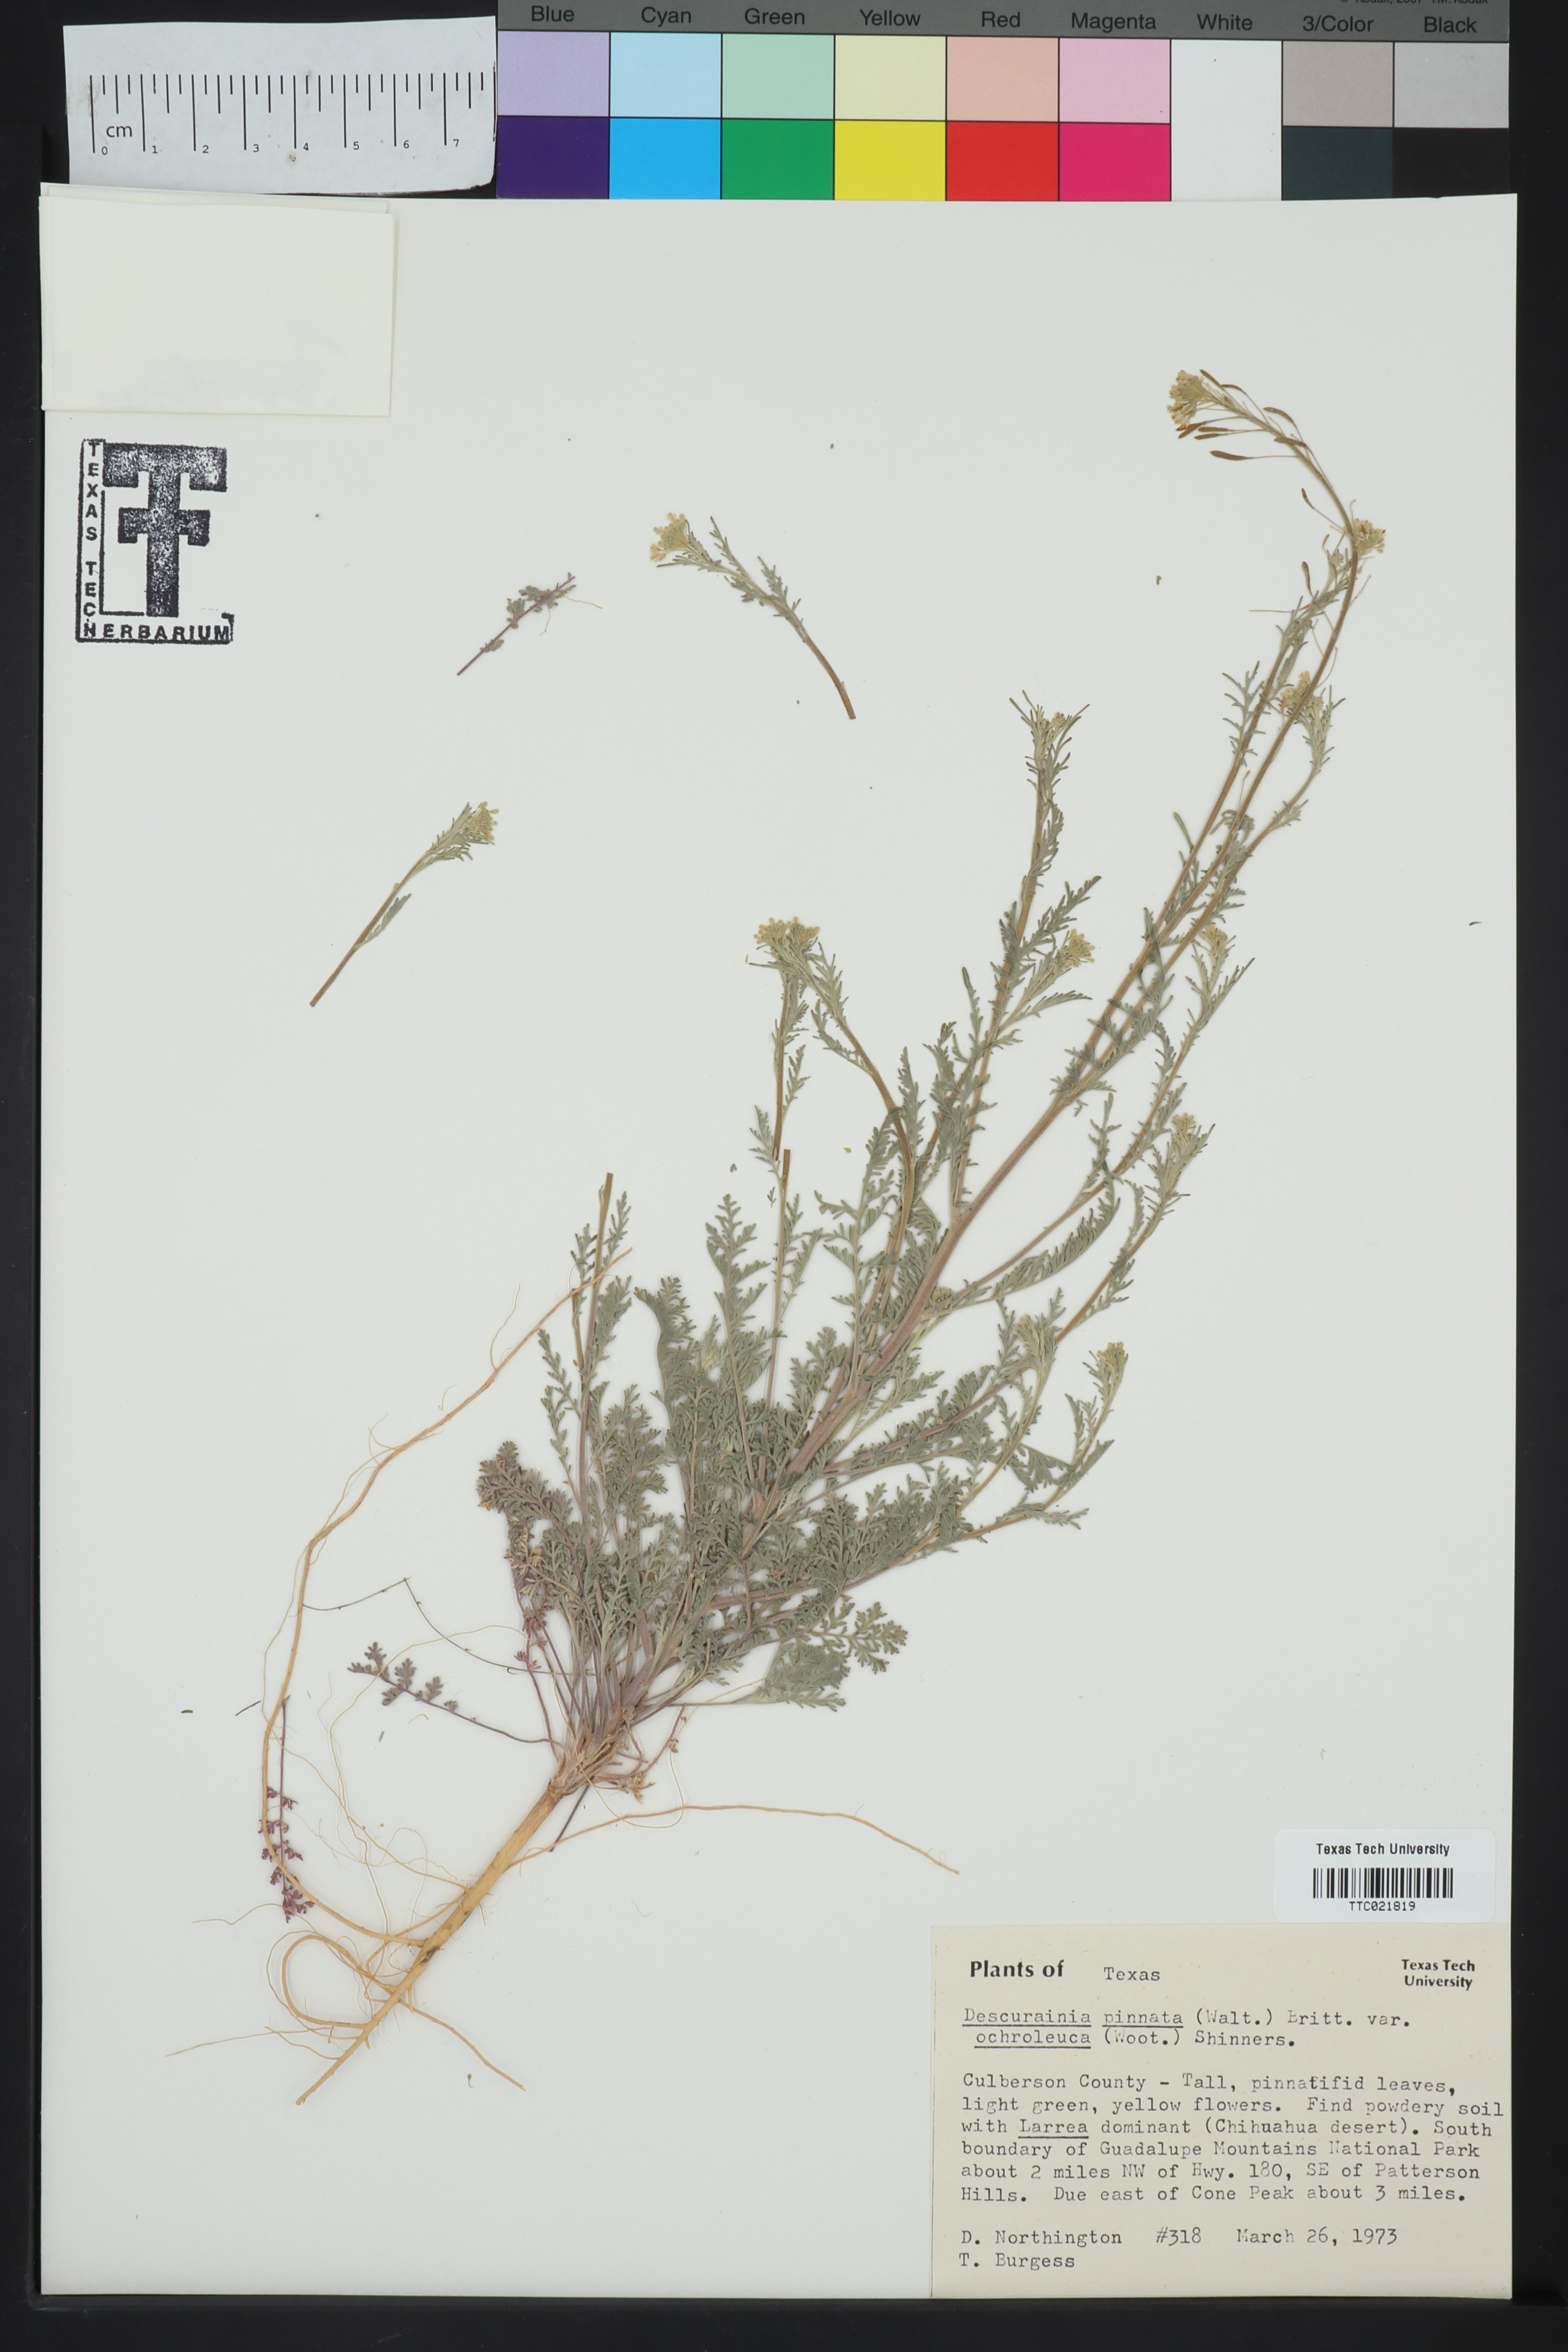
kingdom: Plantae
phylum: Tracheophyta
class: Magnoliopsida
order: Brassicales
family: Brassicaceae
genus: Descurainia
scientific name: Descurainia pinnata
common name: Western tansy mustard
